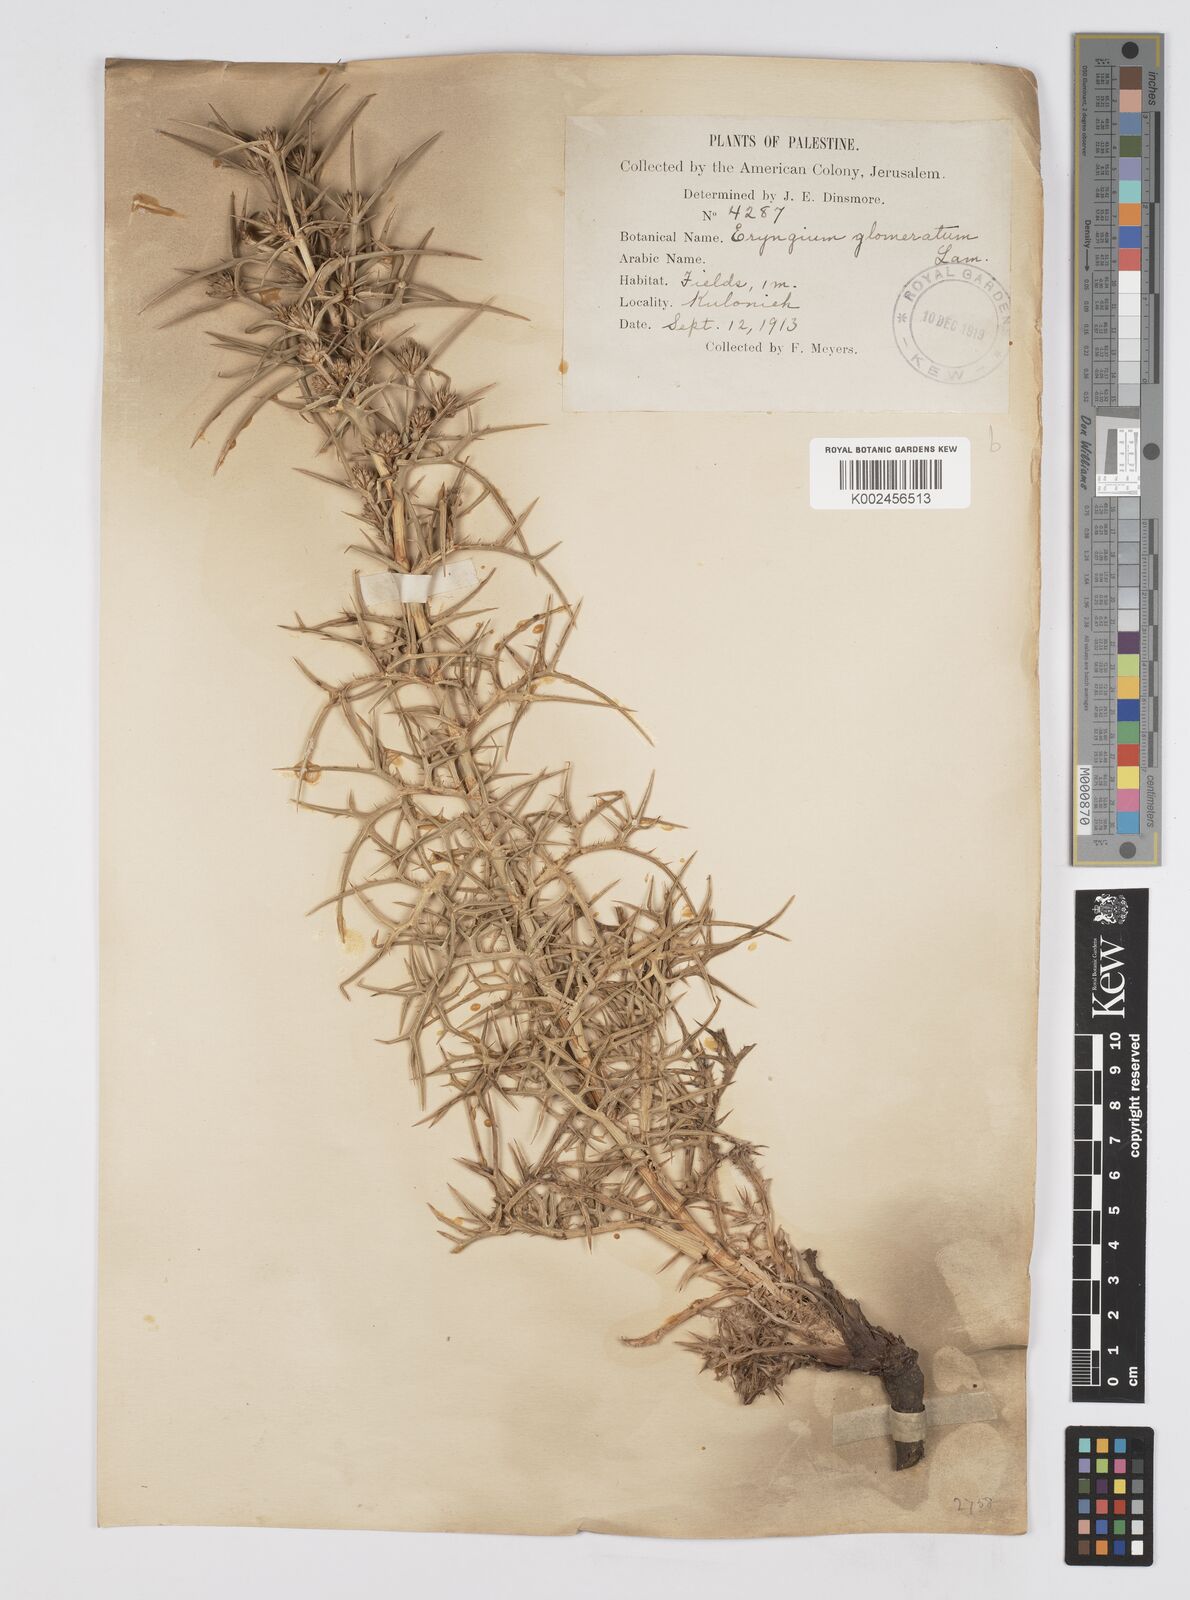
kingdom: Plantae
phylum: Tracheophyta
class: Magnoliopsida
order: Apiales
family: Apiaceae
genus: Eryngium
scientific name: Eryngium glomeratum
